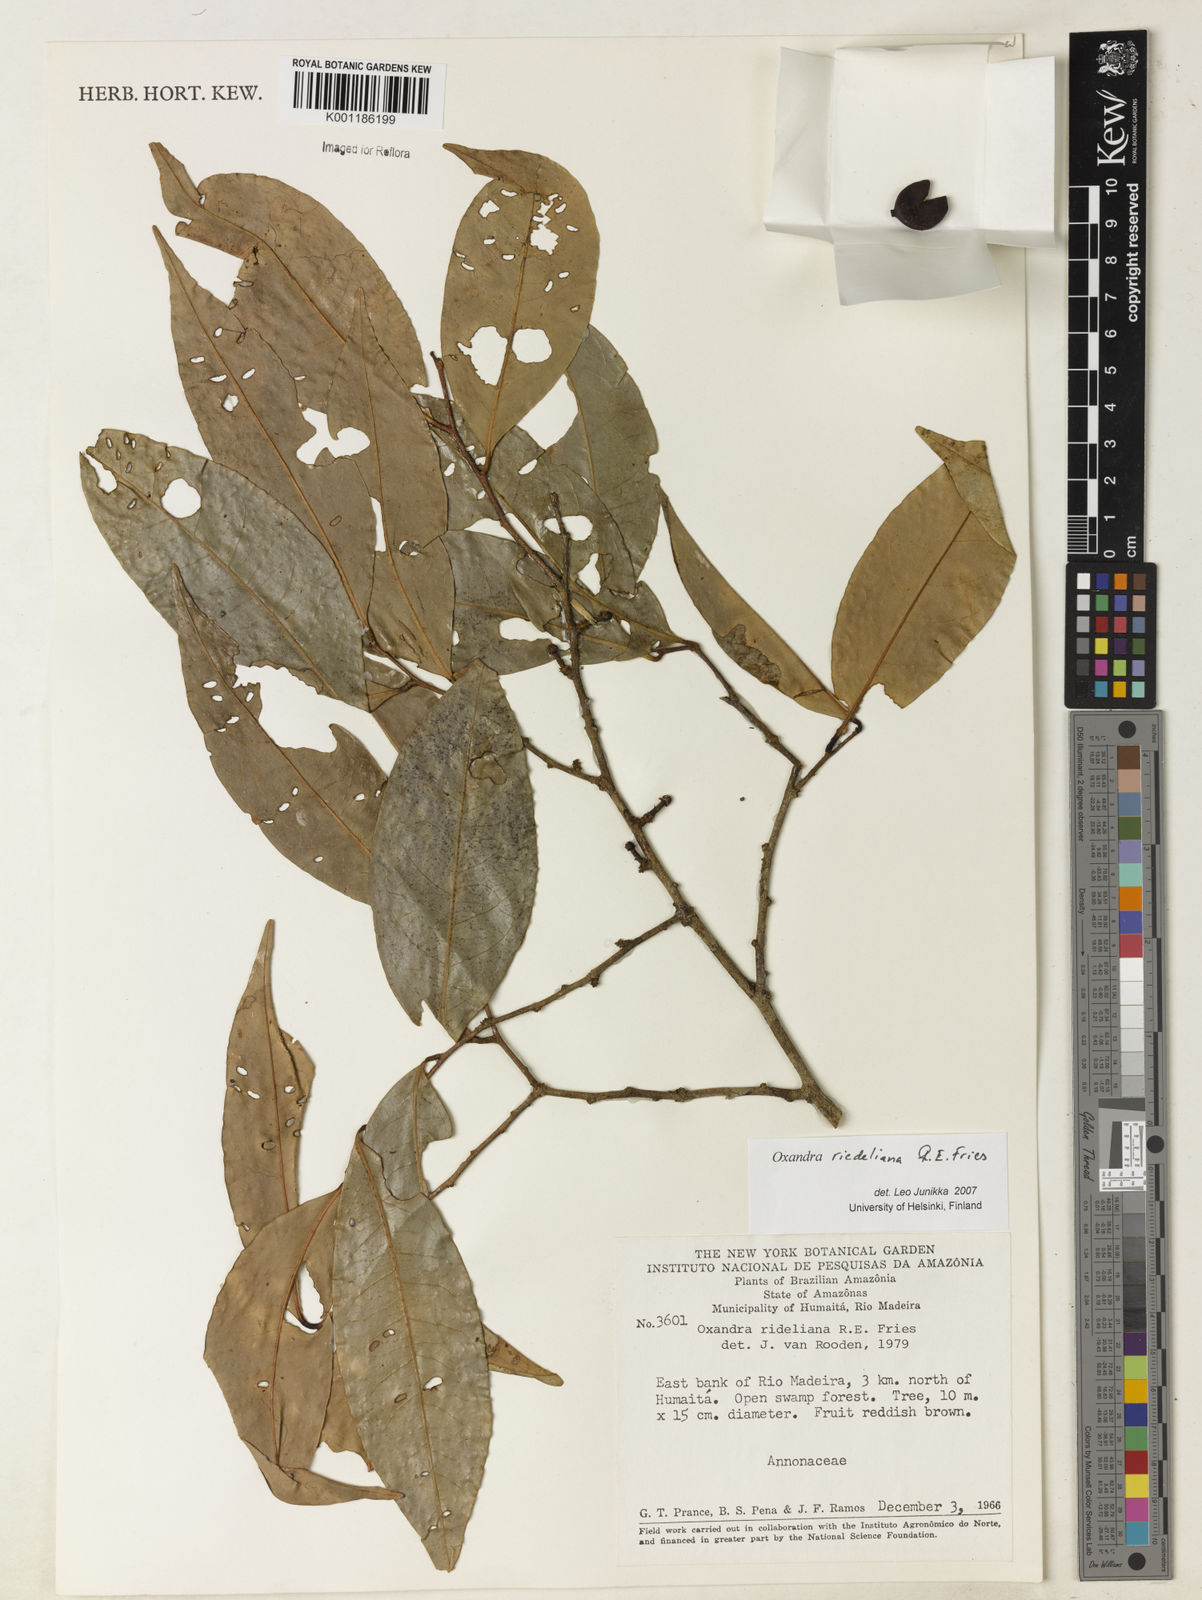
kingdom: Plantae
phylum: Tracheophyta
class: Magnoliopsida
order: Magnoliales
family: Annonaceae
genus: Oxandra
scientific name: Oxandra riedeliana
